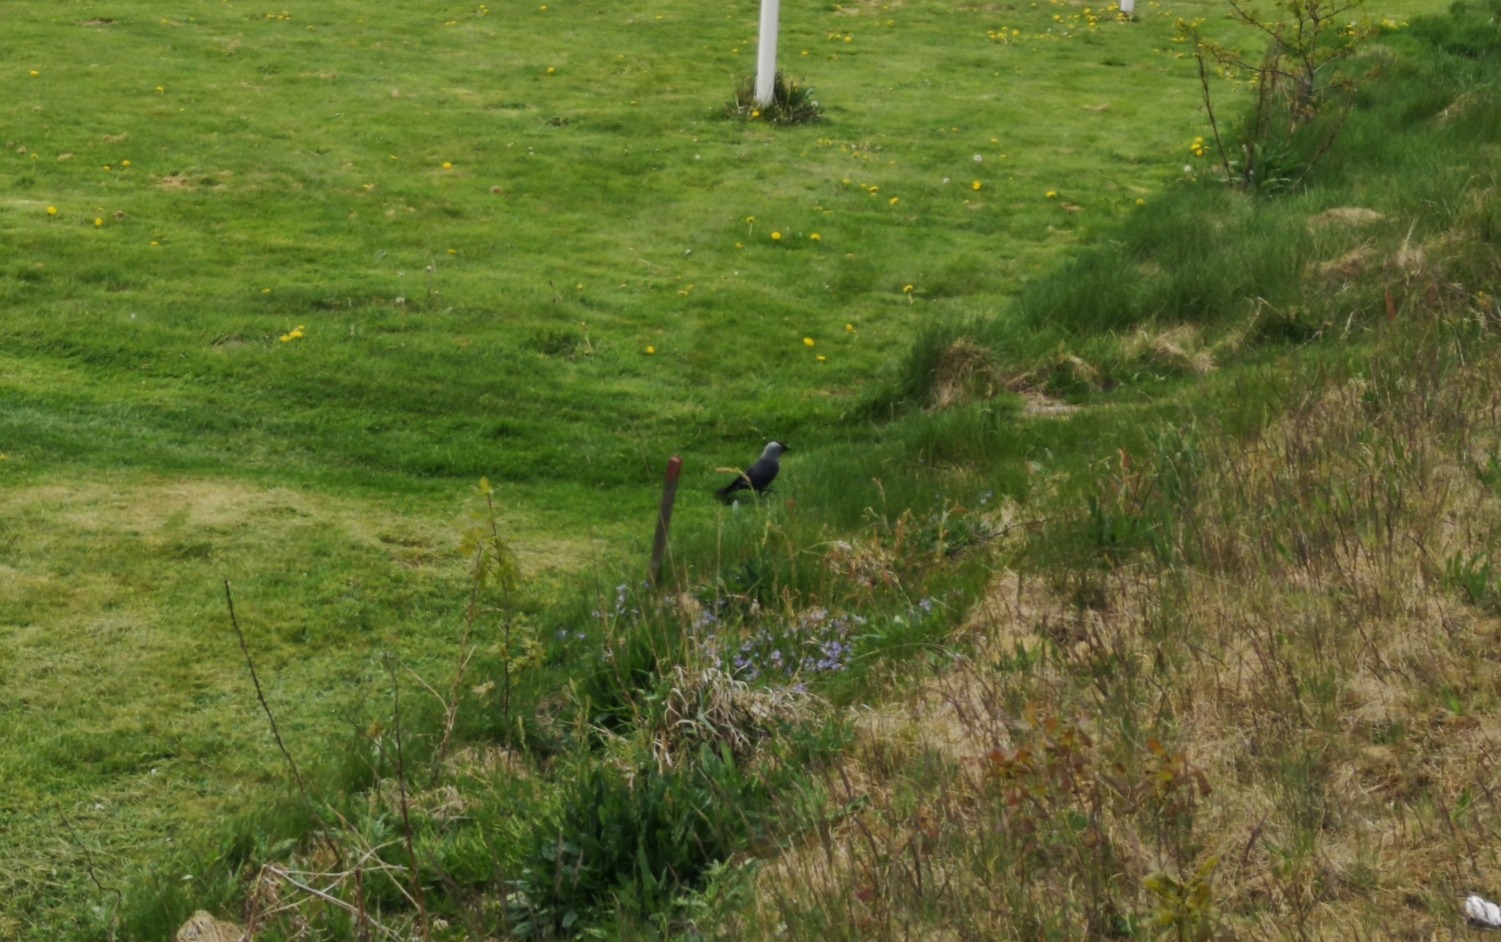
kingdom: Animalia
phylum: Chordata
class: Aves
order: Passeriformes
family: Corvidae
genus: Coloeus
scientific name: Coloeus monedula
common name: Allike
